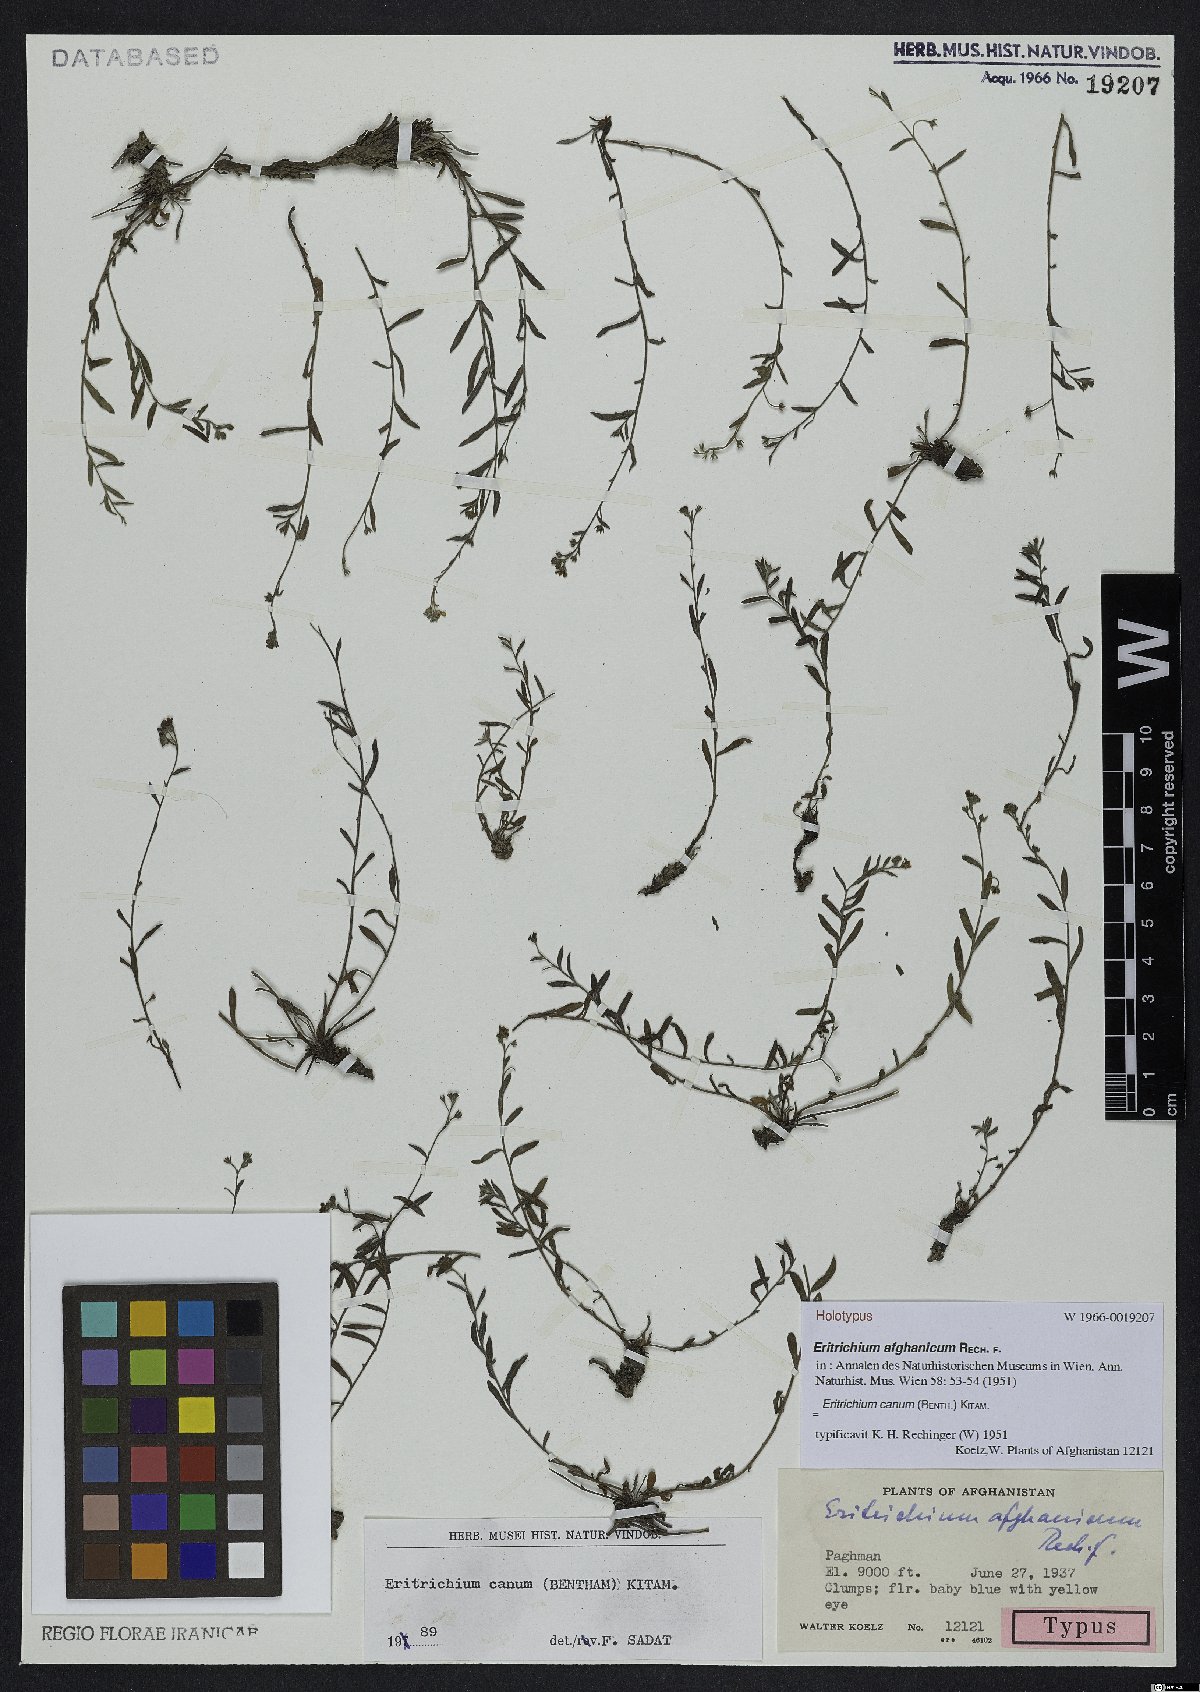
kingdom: Plantae
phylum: Tracheophyta
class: Magnoliopsida
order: Boraginales
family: Boraginaceae
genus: Eritrichium
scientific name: Eritrichium canum
